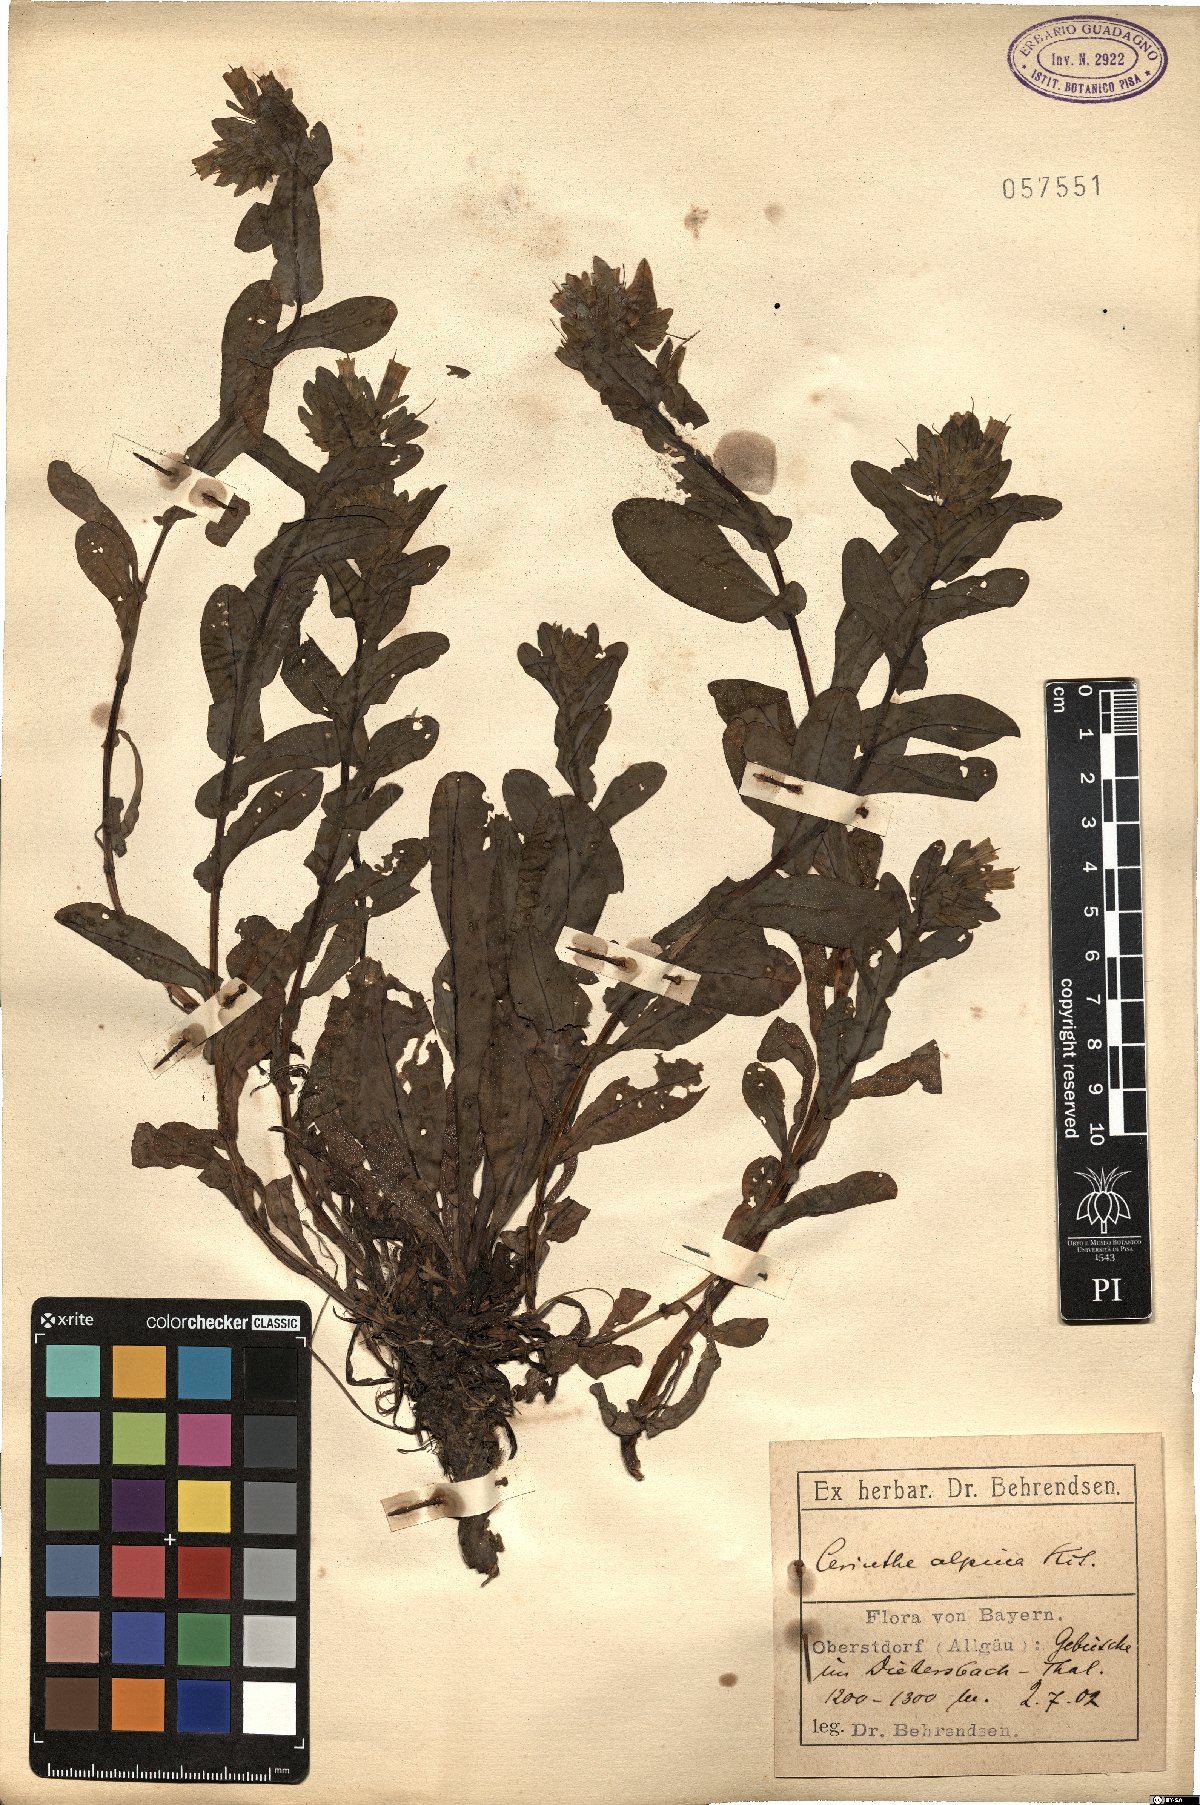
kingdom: Plantae
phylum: Tracheophyta
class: Magnoliopsida
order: Boraginales
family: Boraginaceae
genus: Cerinthe
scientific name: Cerinthe glabra
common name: Smooth honeywort
